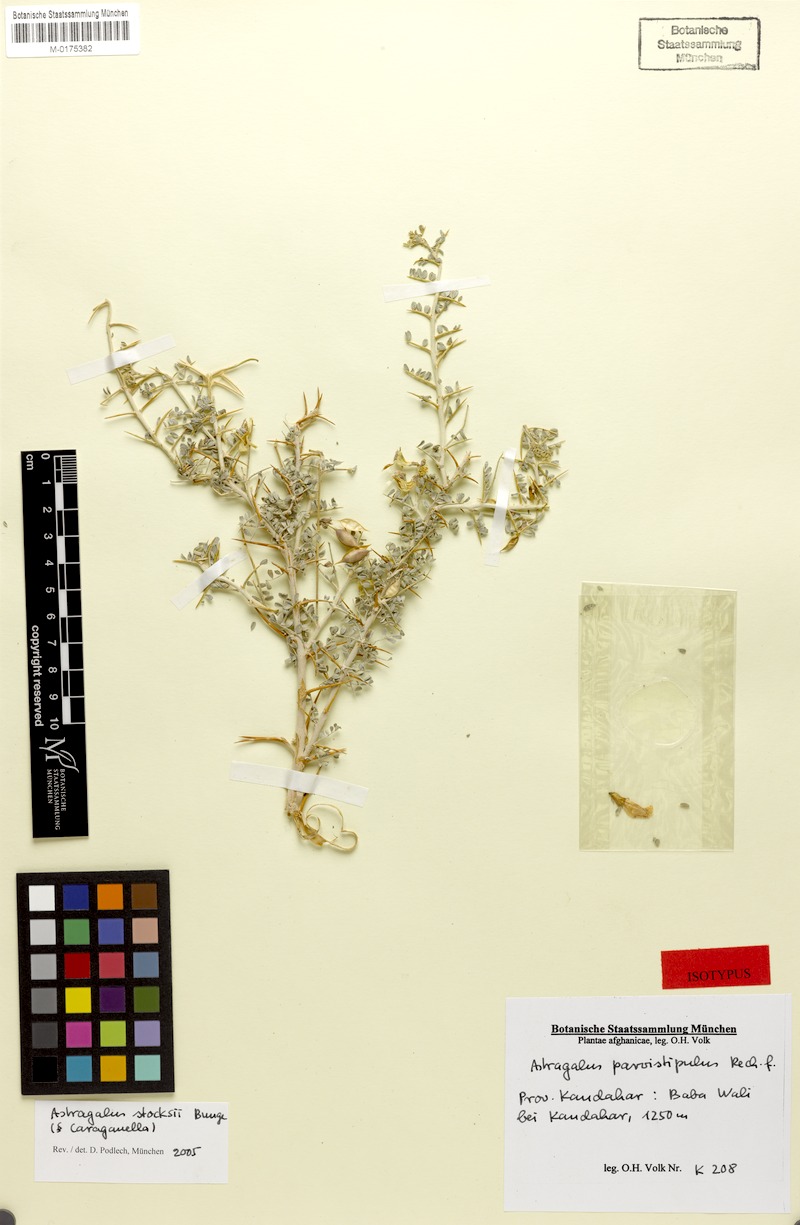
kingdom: Plantae
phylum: Tracheophyta
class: Magnoliopsida
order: Fabales
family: Fabaceae
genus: Astragalus
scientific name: Astragalus stocksii
